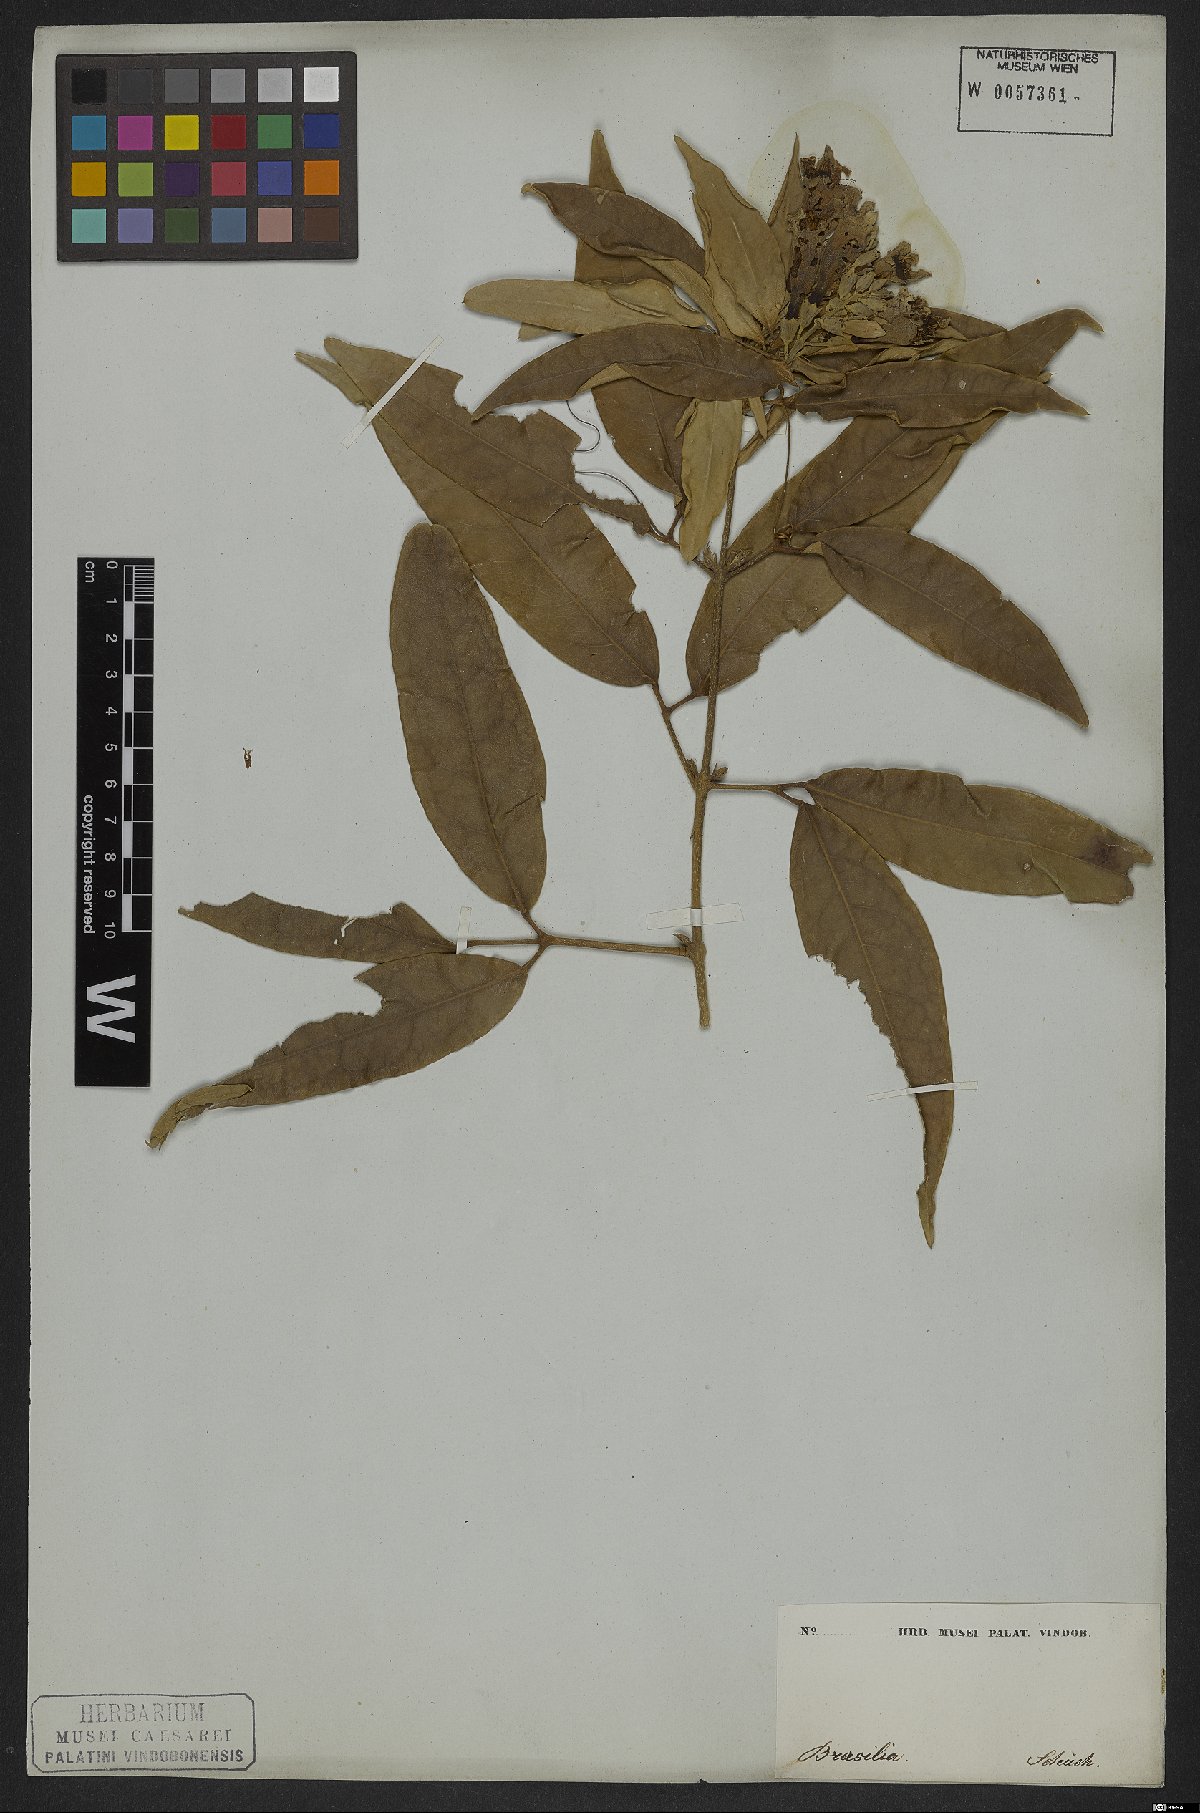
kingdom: Plantae
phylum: Tracheophyta
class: Magnoliopsida
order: Lamiales
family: Bignoniaceae
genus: Adenocalymma
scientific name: Adenocalymma trifoliatum
